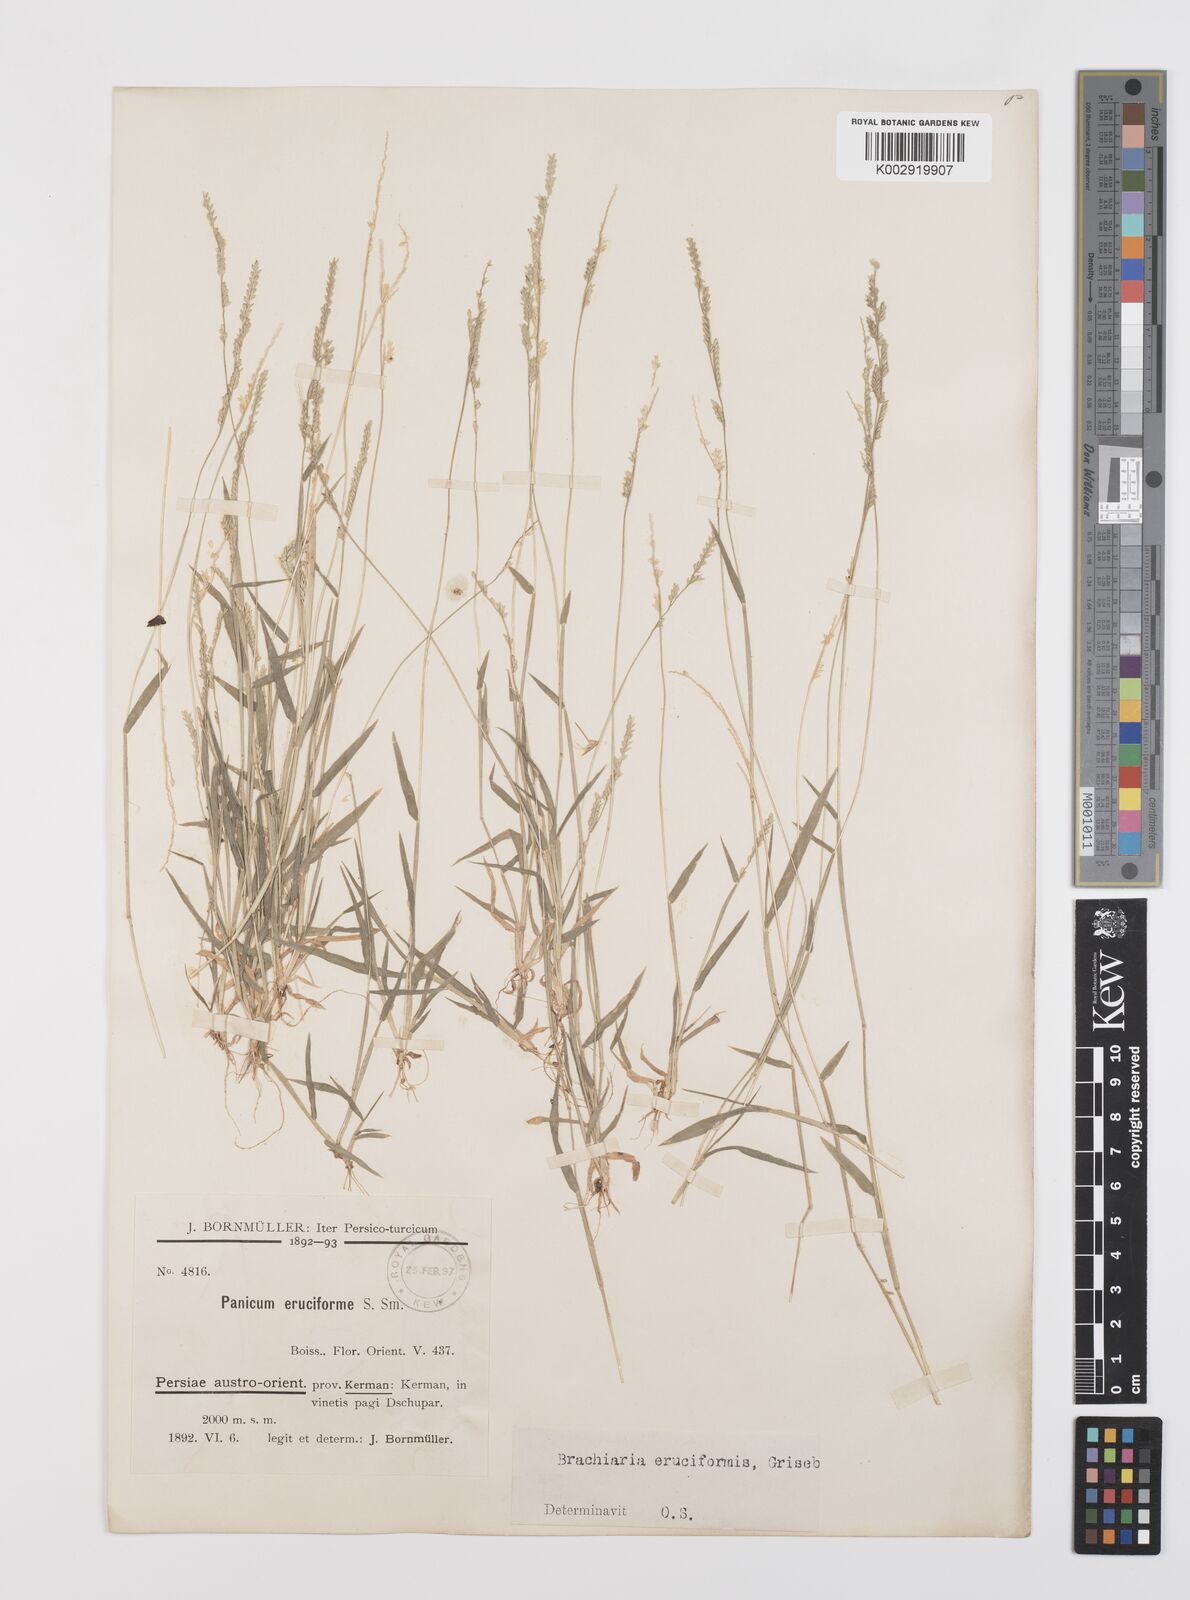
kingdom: Plantae
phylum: Tracheophyta
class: Liliopsida
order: Poales
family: Poaceae
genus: Moorochloa
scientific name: Moorochloa eruciformis
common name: Sweet signalgrass
